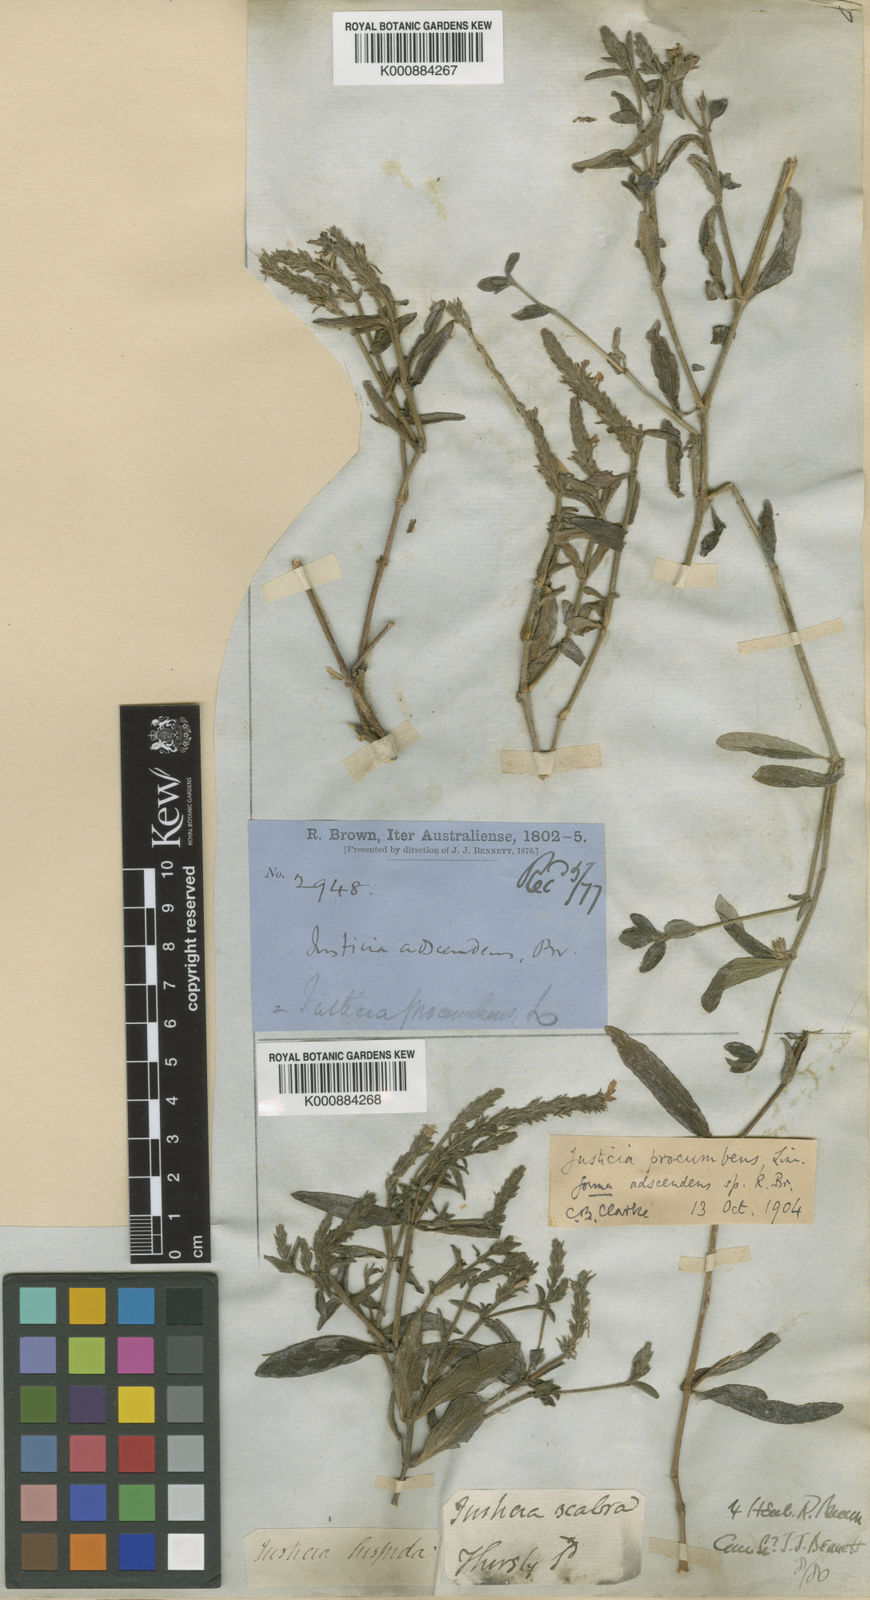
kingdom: Plantae
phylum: Tracheophyta
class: Magnoliopsida
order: Lamiales
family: Acanthaceae
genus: Rostellularia
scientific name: Rostellularia obtusa
